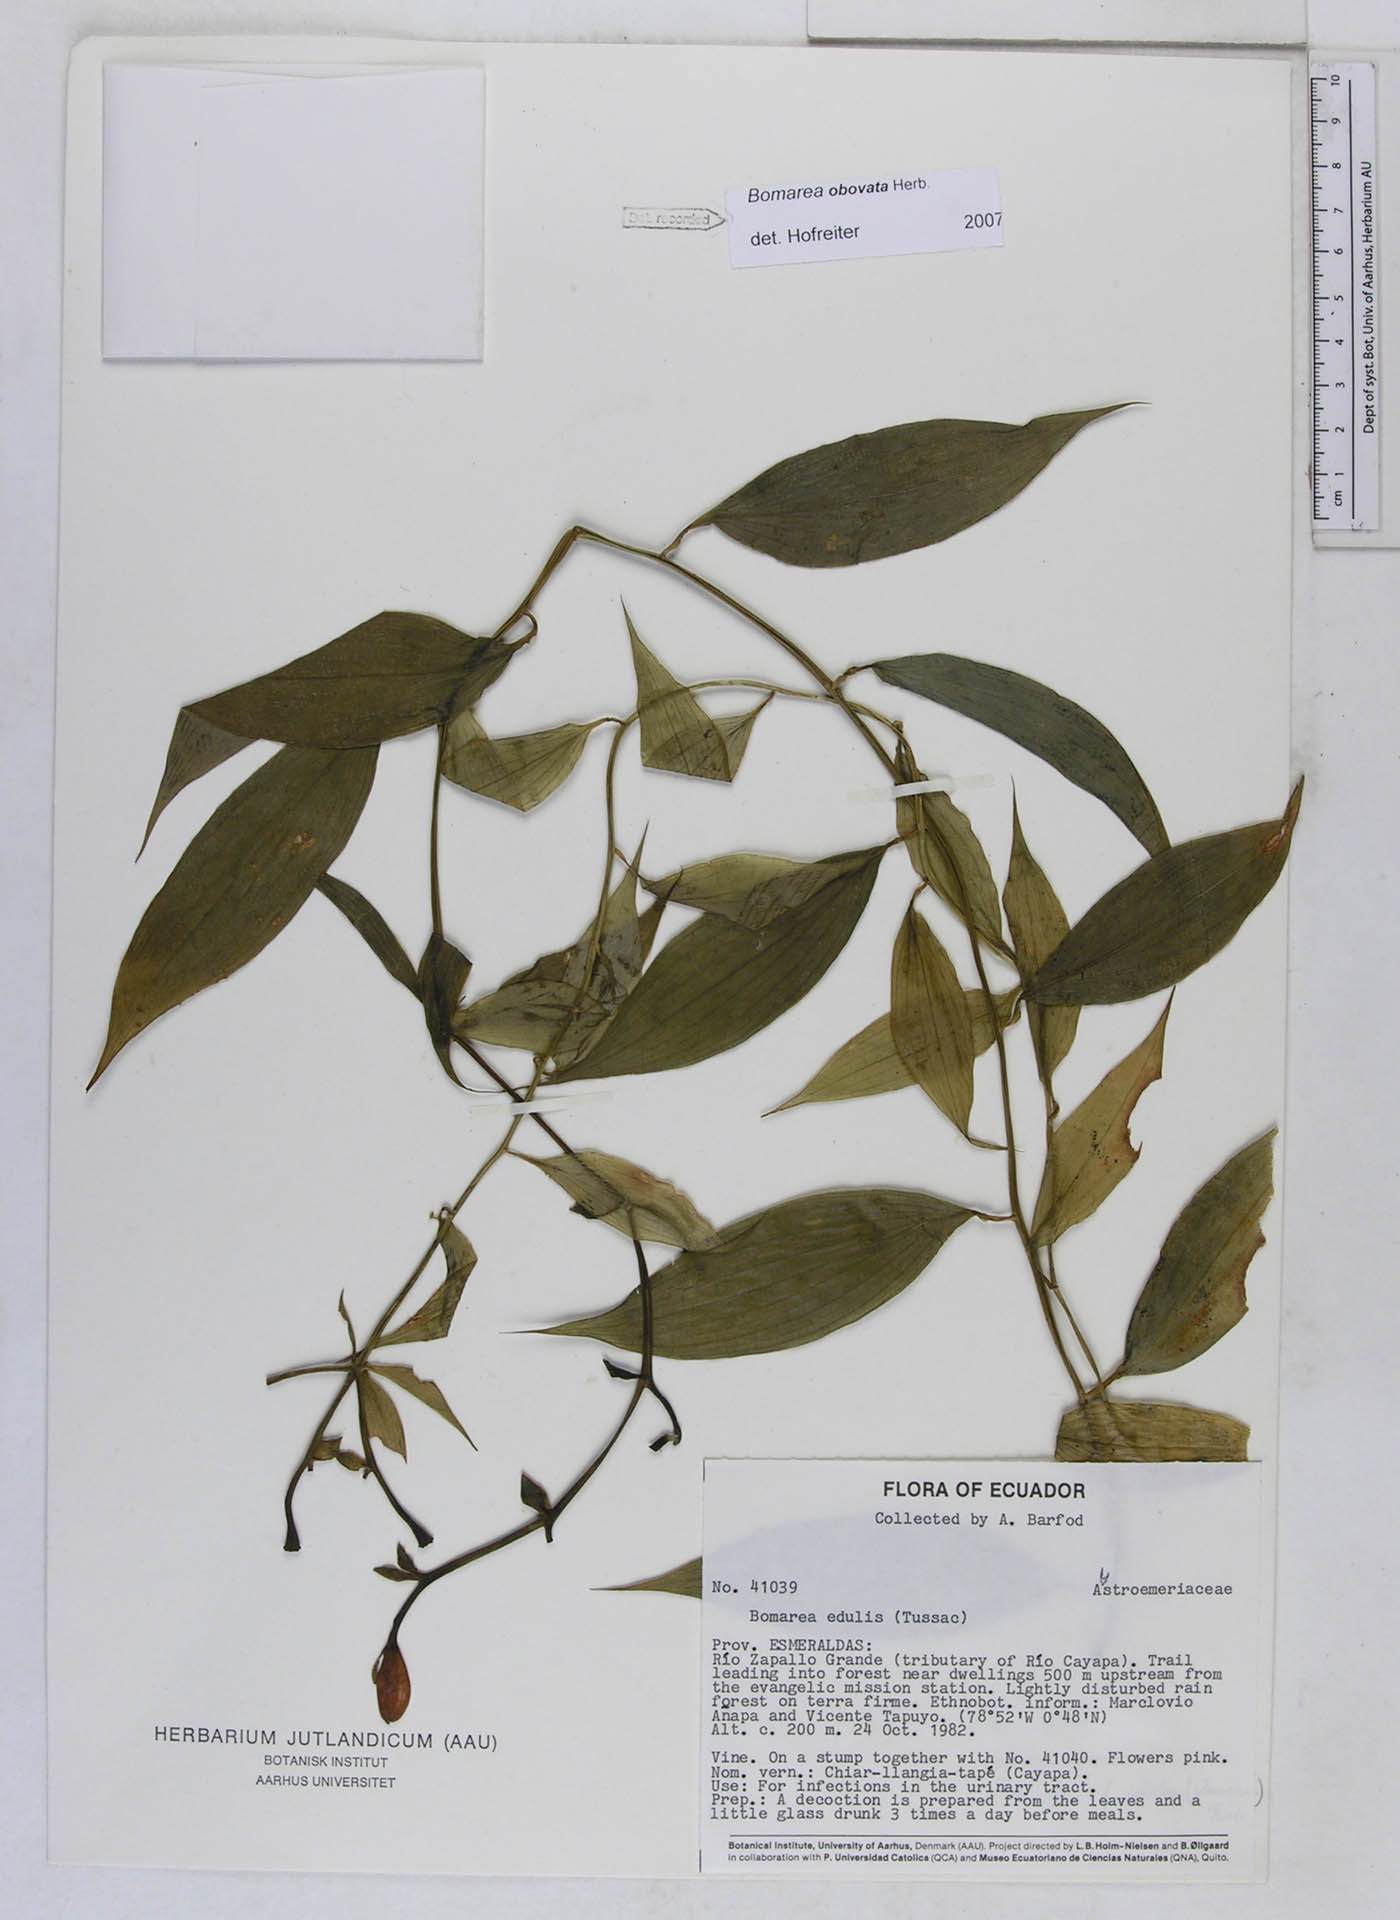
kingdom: Plantae
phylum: Tracheophyta
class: Liliopsida
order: Liliales
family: Alstroemeriaceae
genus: Bomarea
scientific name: Bomarea obovata
